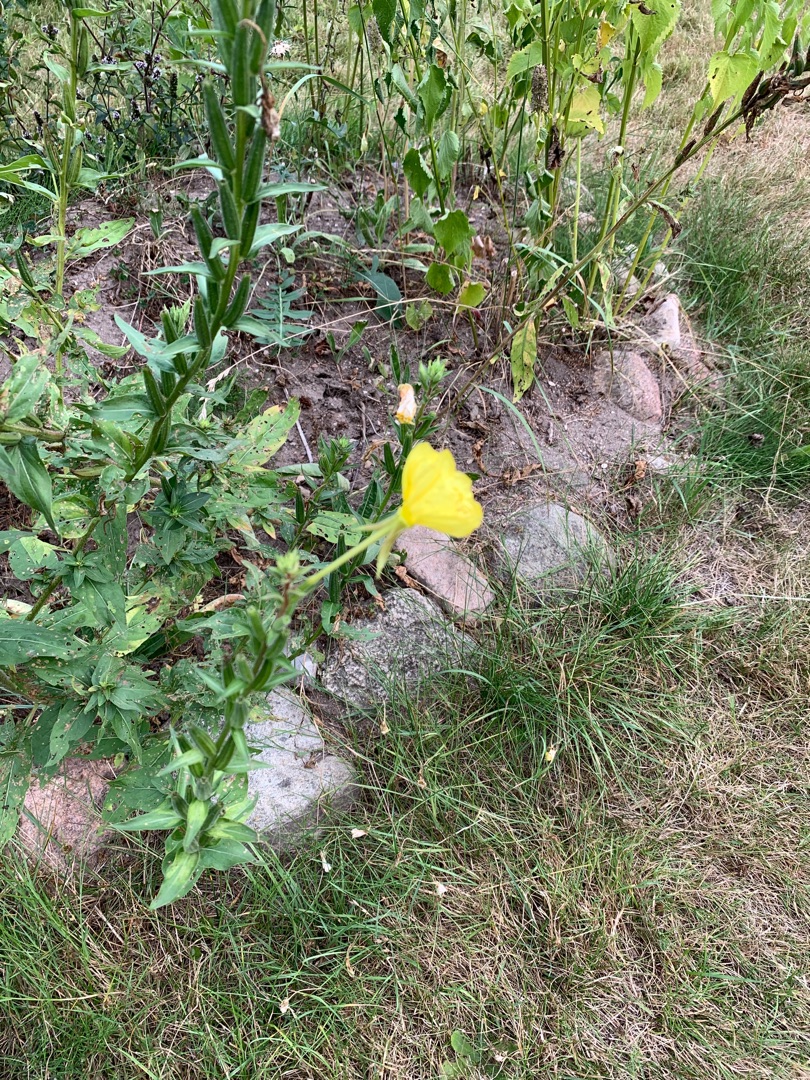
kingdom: Plantae
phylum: Tracheophyta
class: Magnoliopsida
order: Myrtales
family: Onagraceae
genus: Oenothera
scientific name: Oenothera
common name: Natlysslægten
